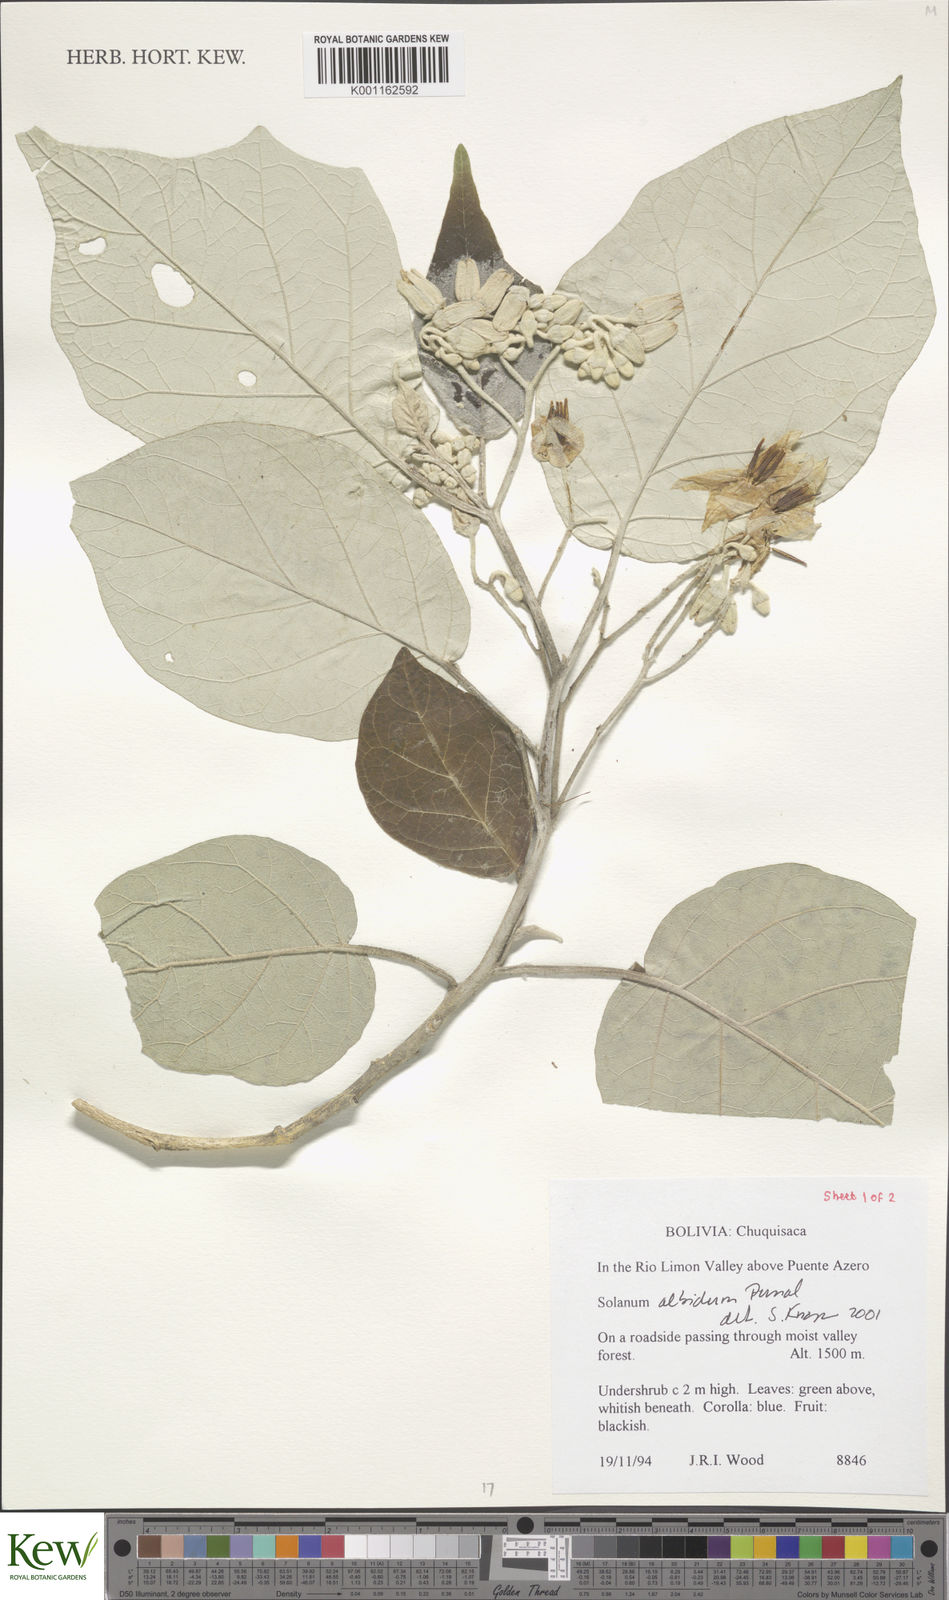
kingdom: Plantae
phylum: Tracheophyta
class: Magnoliopsida
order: Solanales
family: Solanaceae
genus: Solanum
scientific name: Solanum albidum
